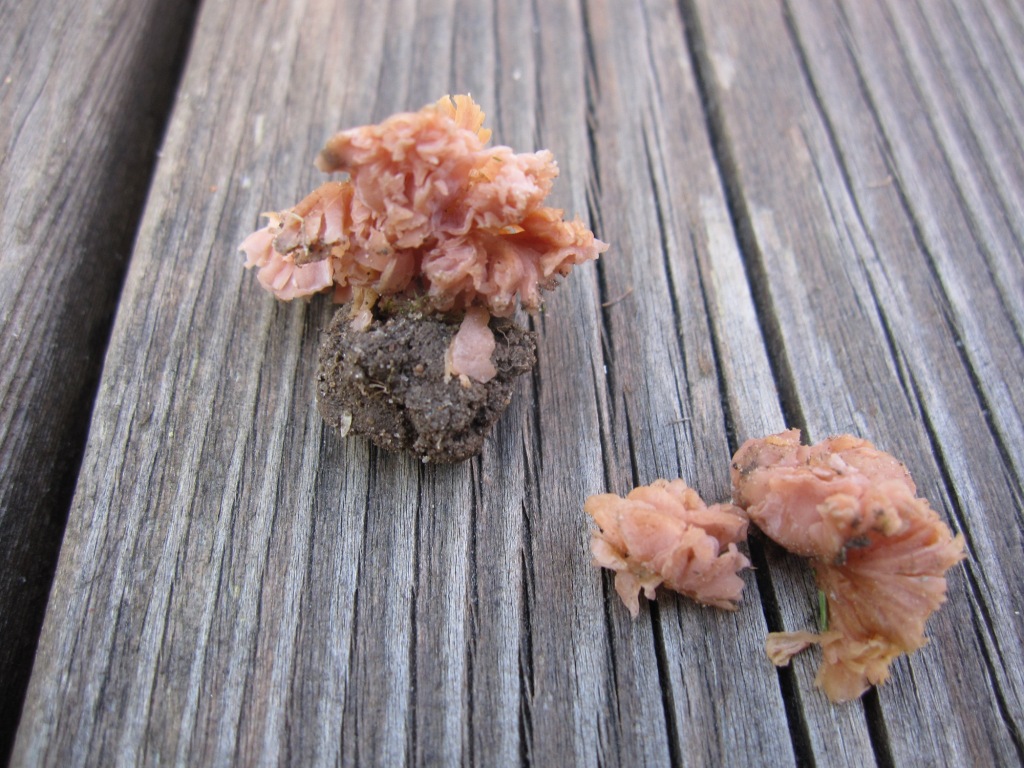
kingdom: Fungi
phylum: Basidiomycota
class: Agaricomycetes
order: Agaricales
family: Hydnangiaceae
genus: Laccaria
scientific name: Laccaria tortilis
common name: krybende ametysthat
